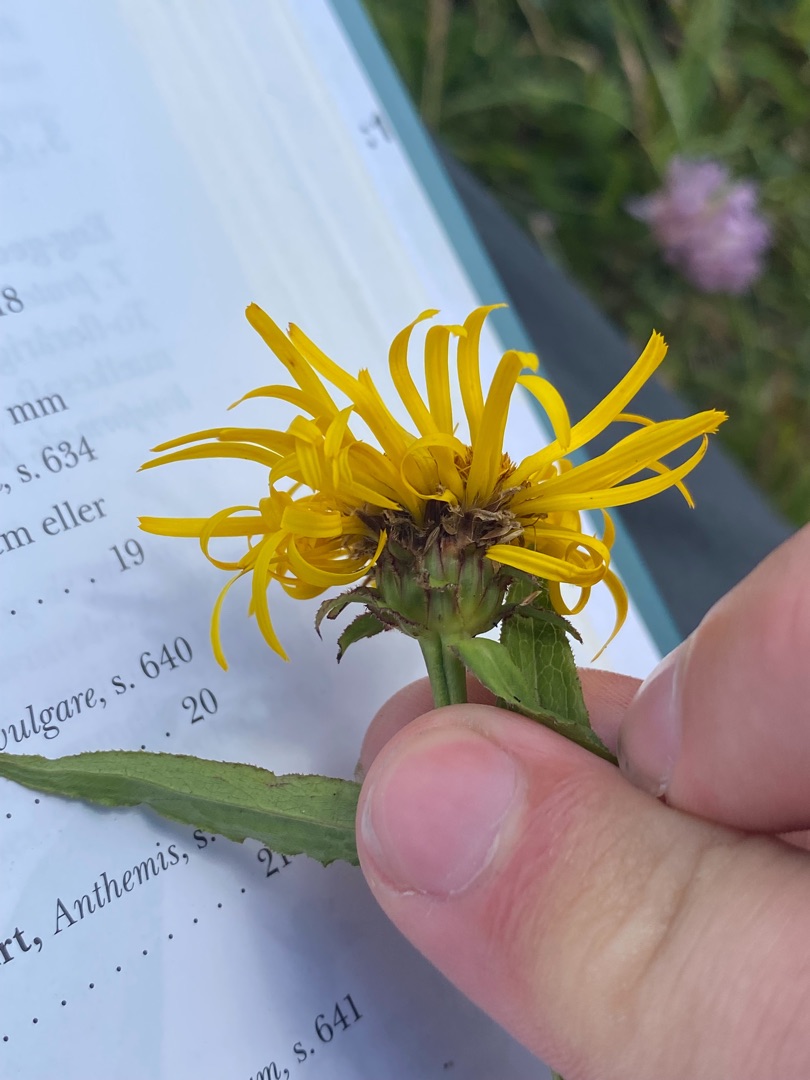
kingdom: Plantae
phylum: Tracheophyta
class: Magnoliopsida
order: Asterales
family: Asteraceae
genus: Pentanema
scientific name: Pentanema salicinum
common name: Pile-alant
